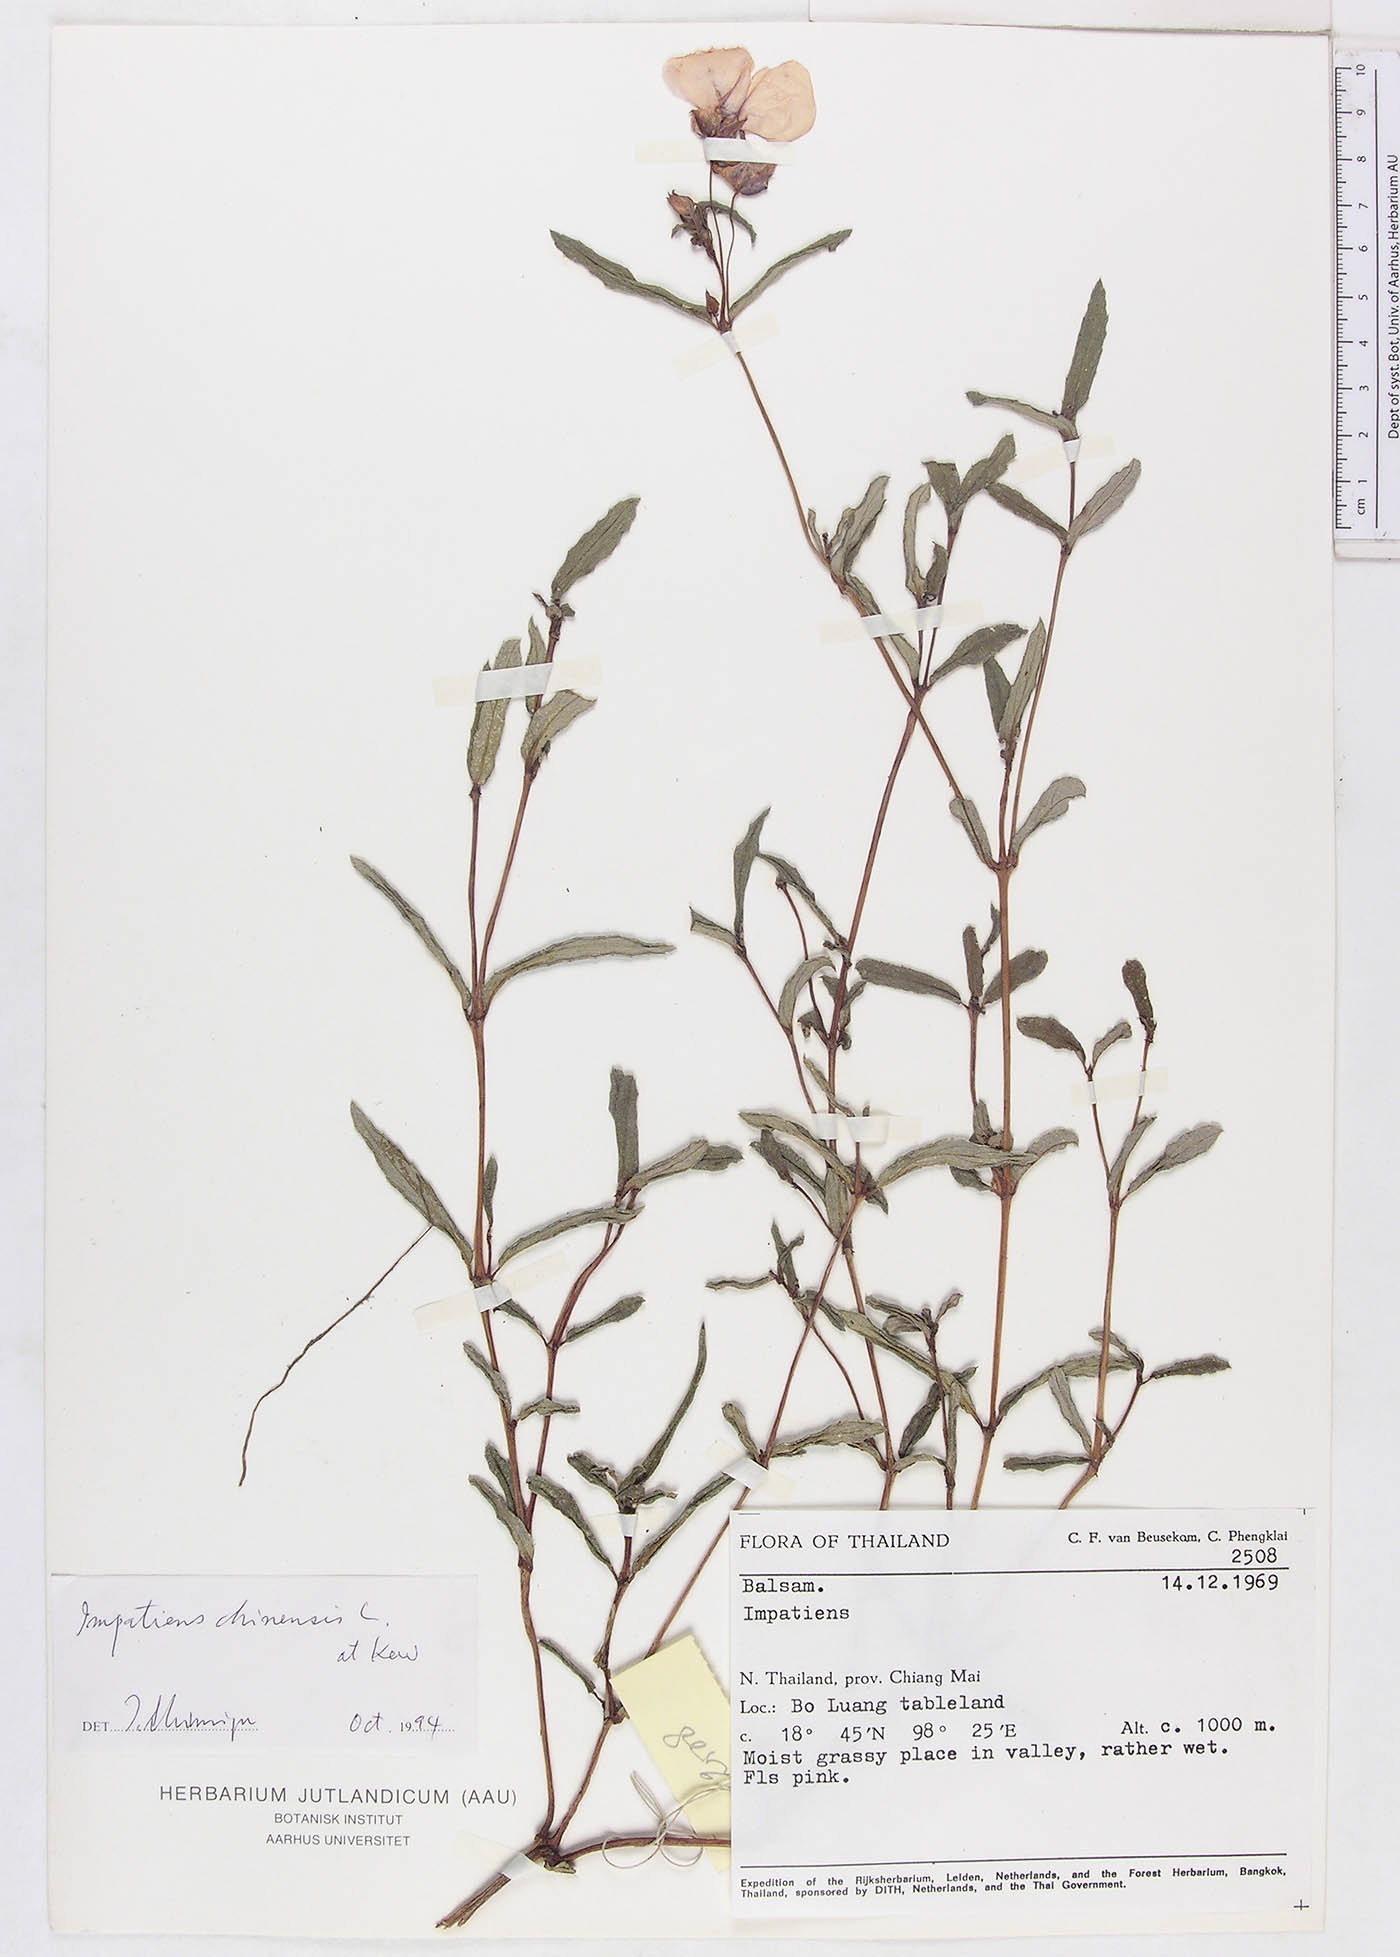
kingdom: Plantae
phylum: Tracheophyta
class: Magnoliopsida
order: Ericales
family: Balsaminaceae
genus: Impatiens
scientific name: Impatiens masonii
